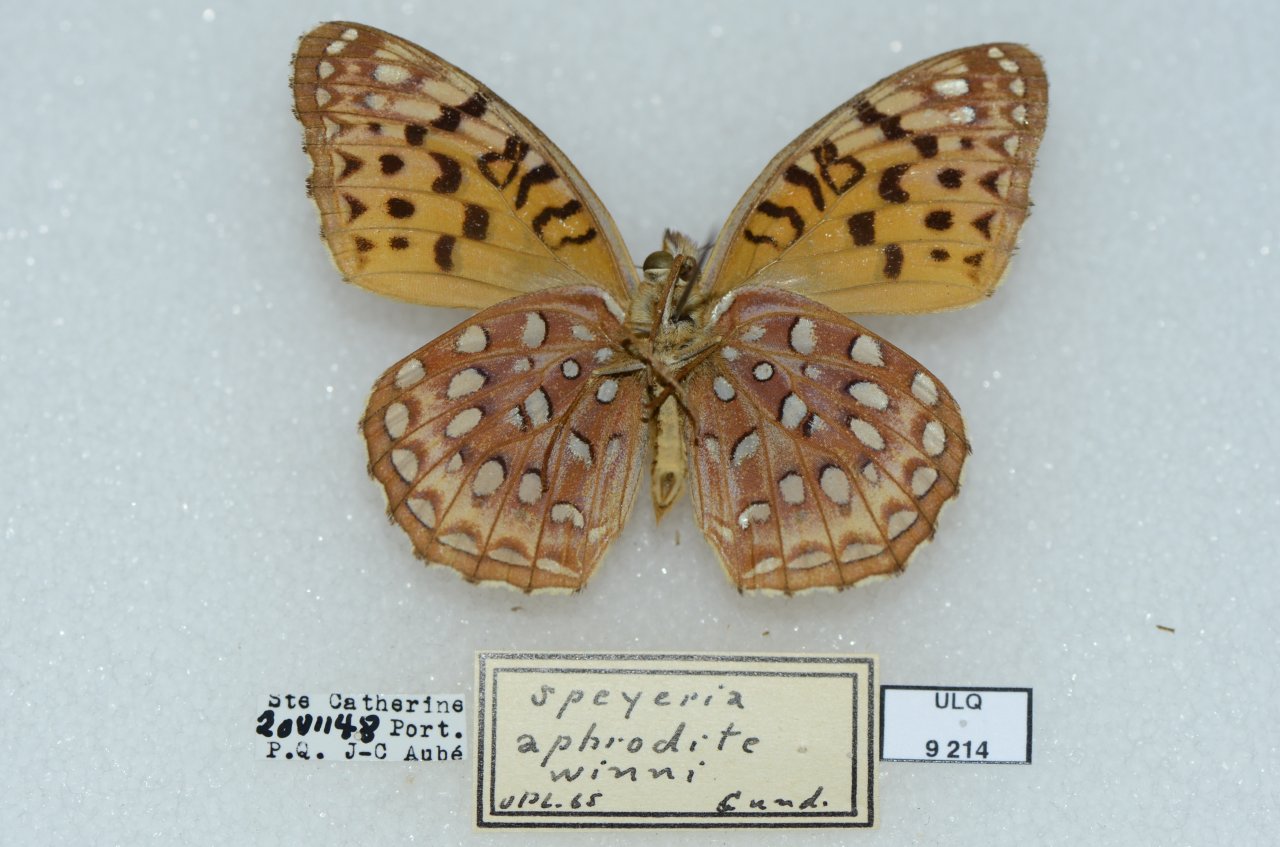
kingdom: Animalia
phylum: Arthropoda
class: Insecta
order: Lepidoptera
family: Nymphalidae
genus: Speyeria
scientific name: Speyeria aphrodite
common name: Aphrodite Fritillary
